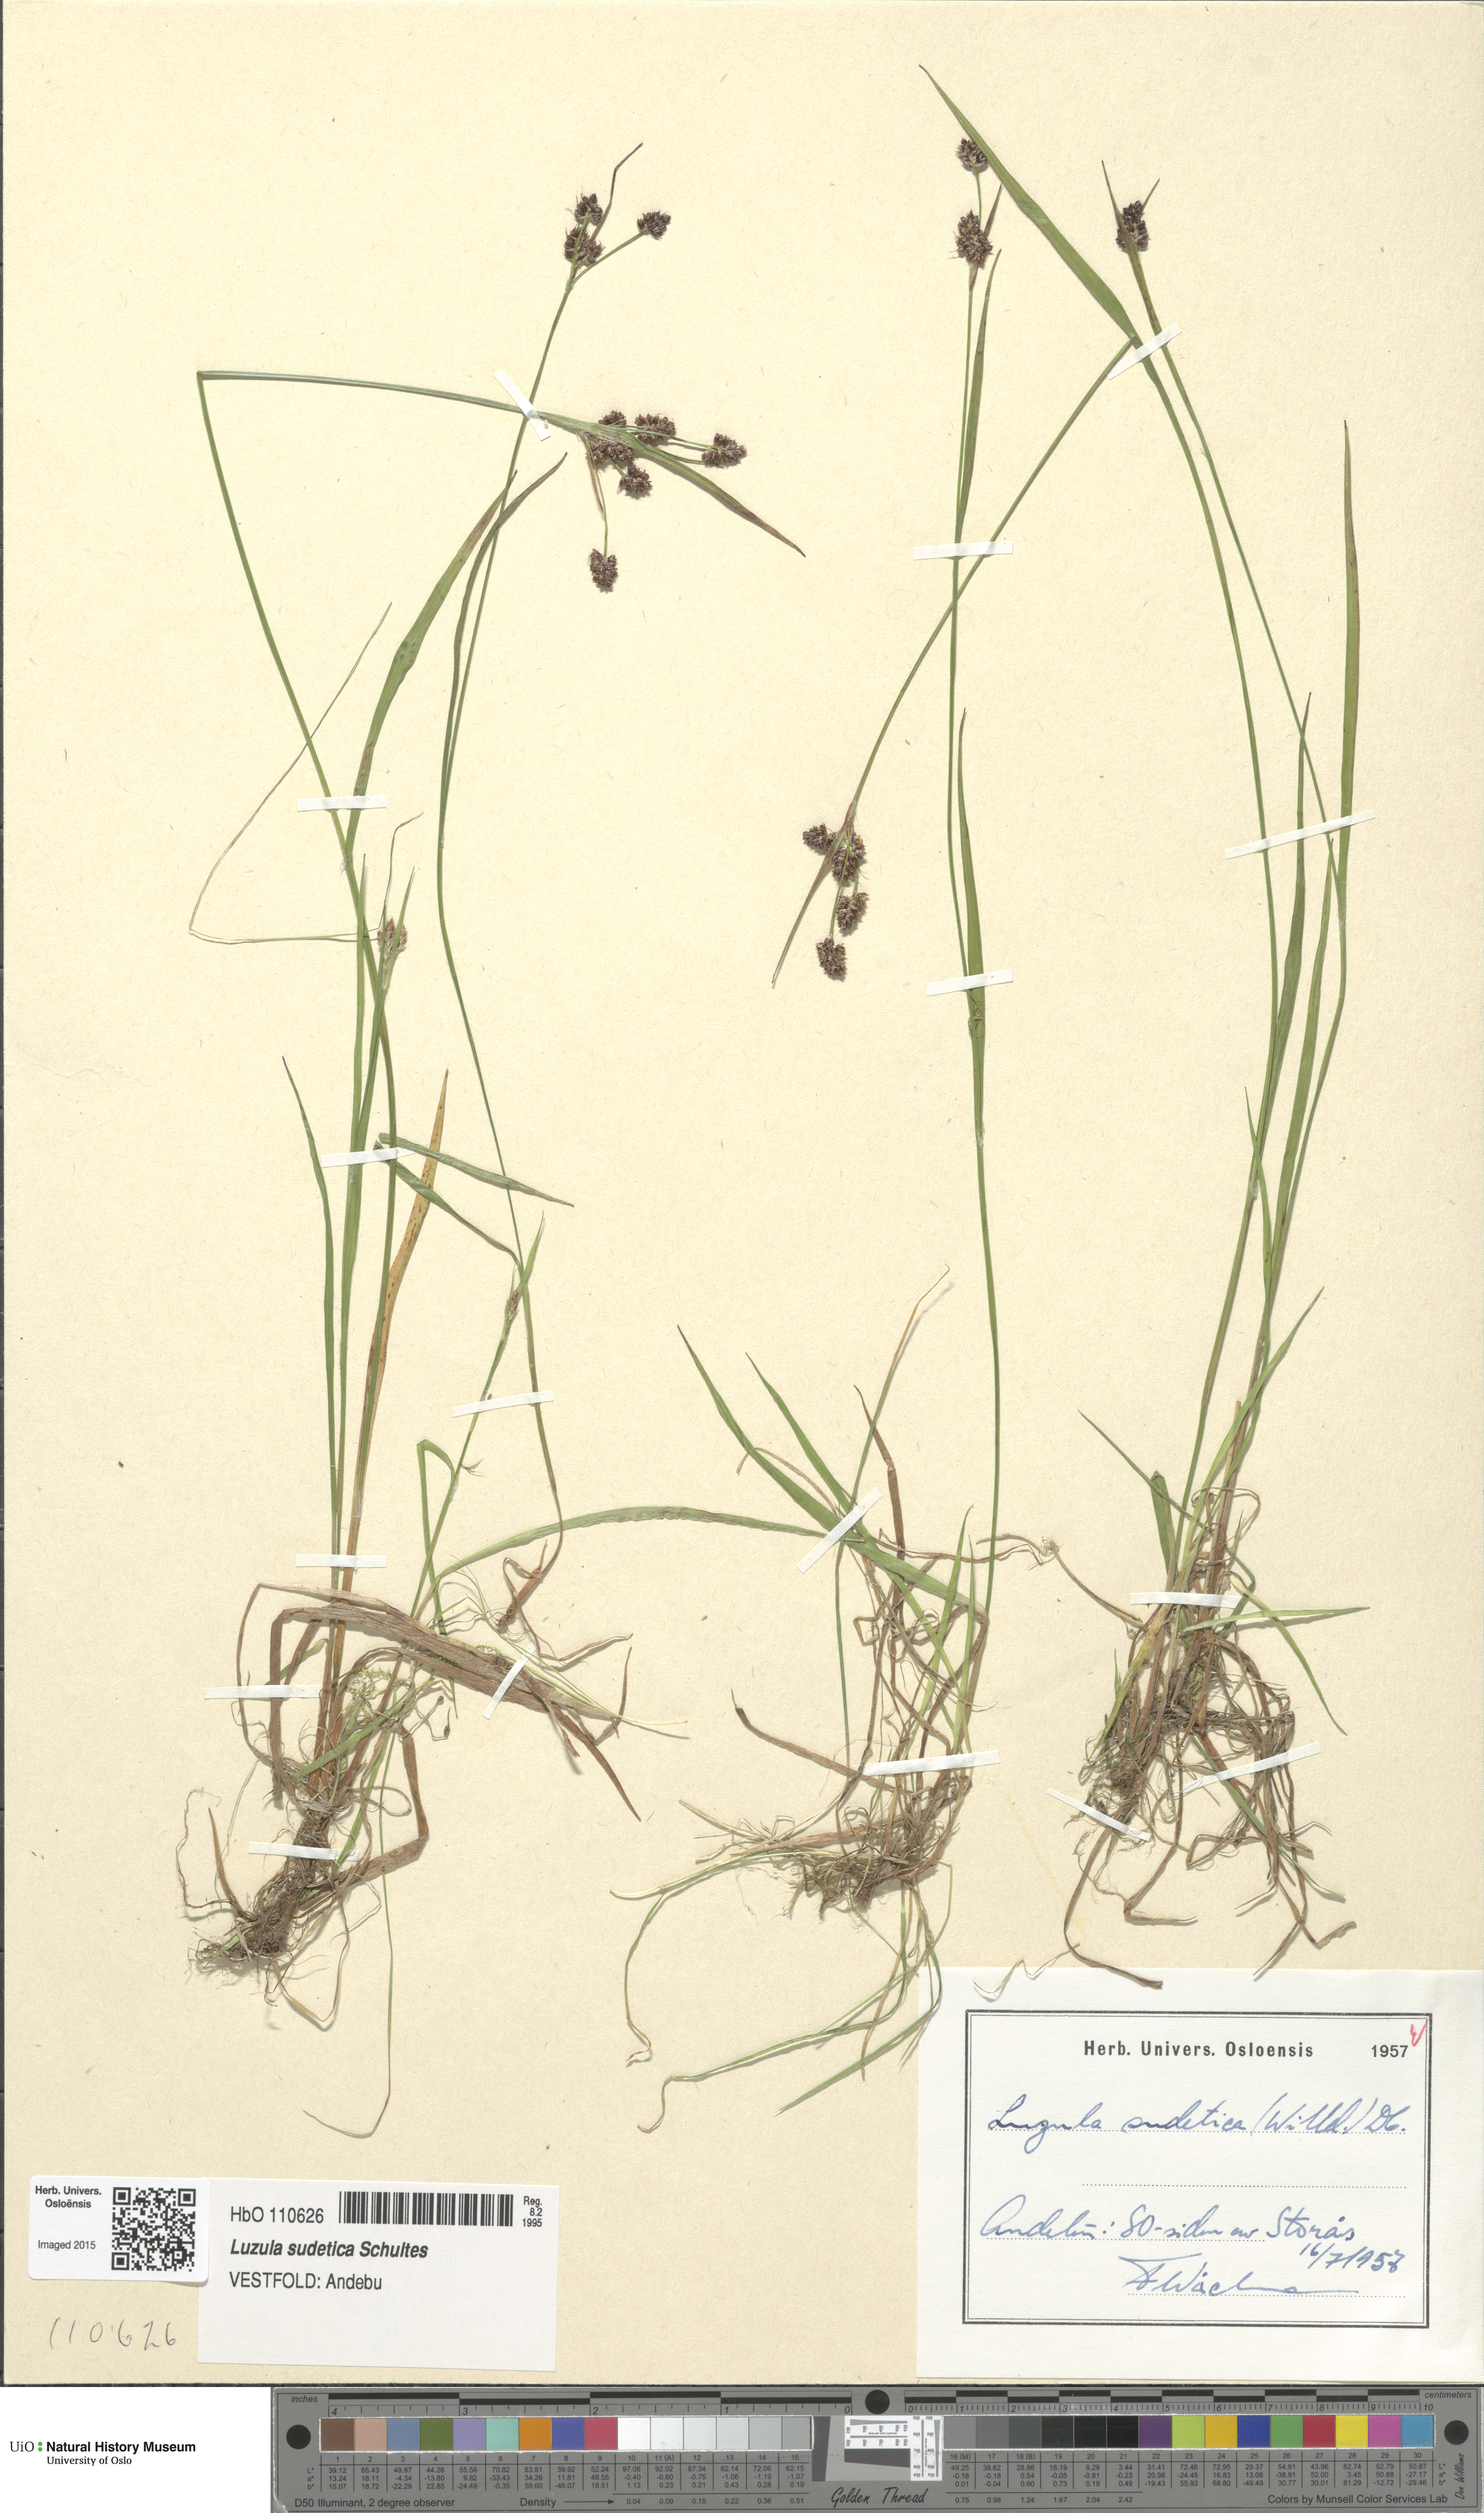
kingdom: Plantae
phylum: Tracheophyta
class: Liliopsida
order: Poales
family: Juncaceae
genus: Luzula
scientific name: Luzula sudetica
